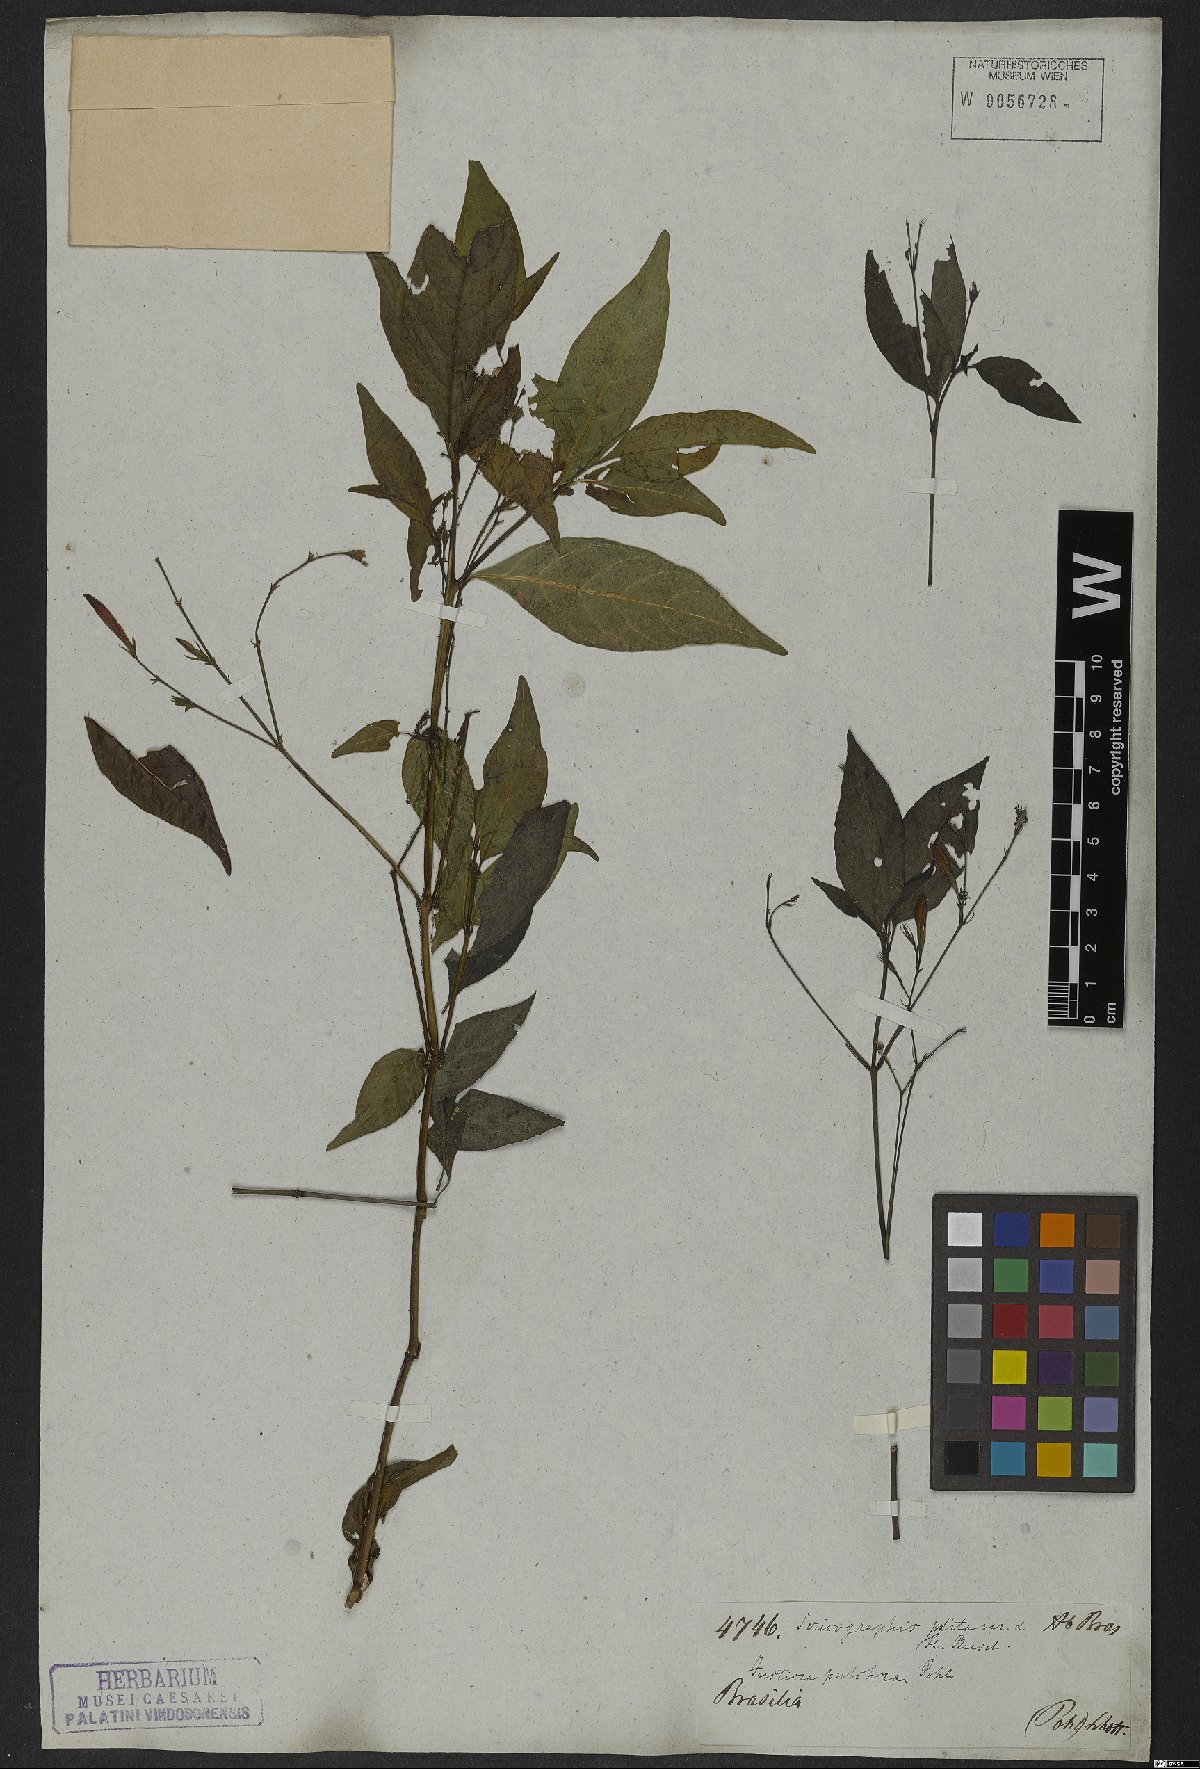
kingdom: Plantae
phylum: Tracheophyta
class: Magnoliopsida
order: Lamiales
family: Acanthaceae
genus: Justicia
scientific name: Justicia polita
